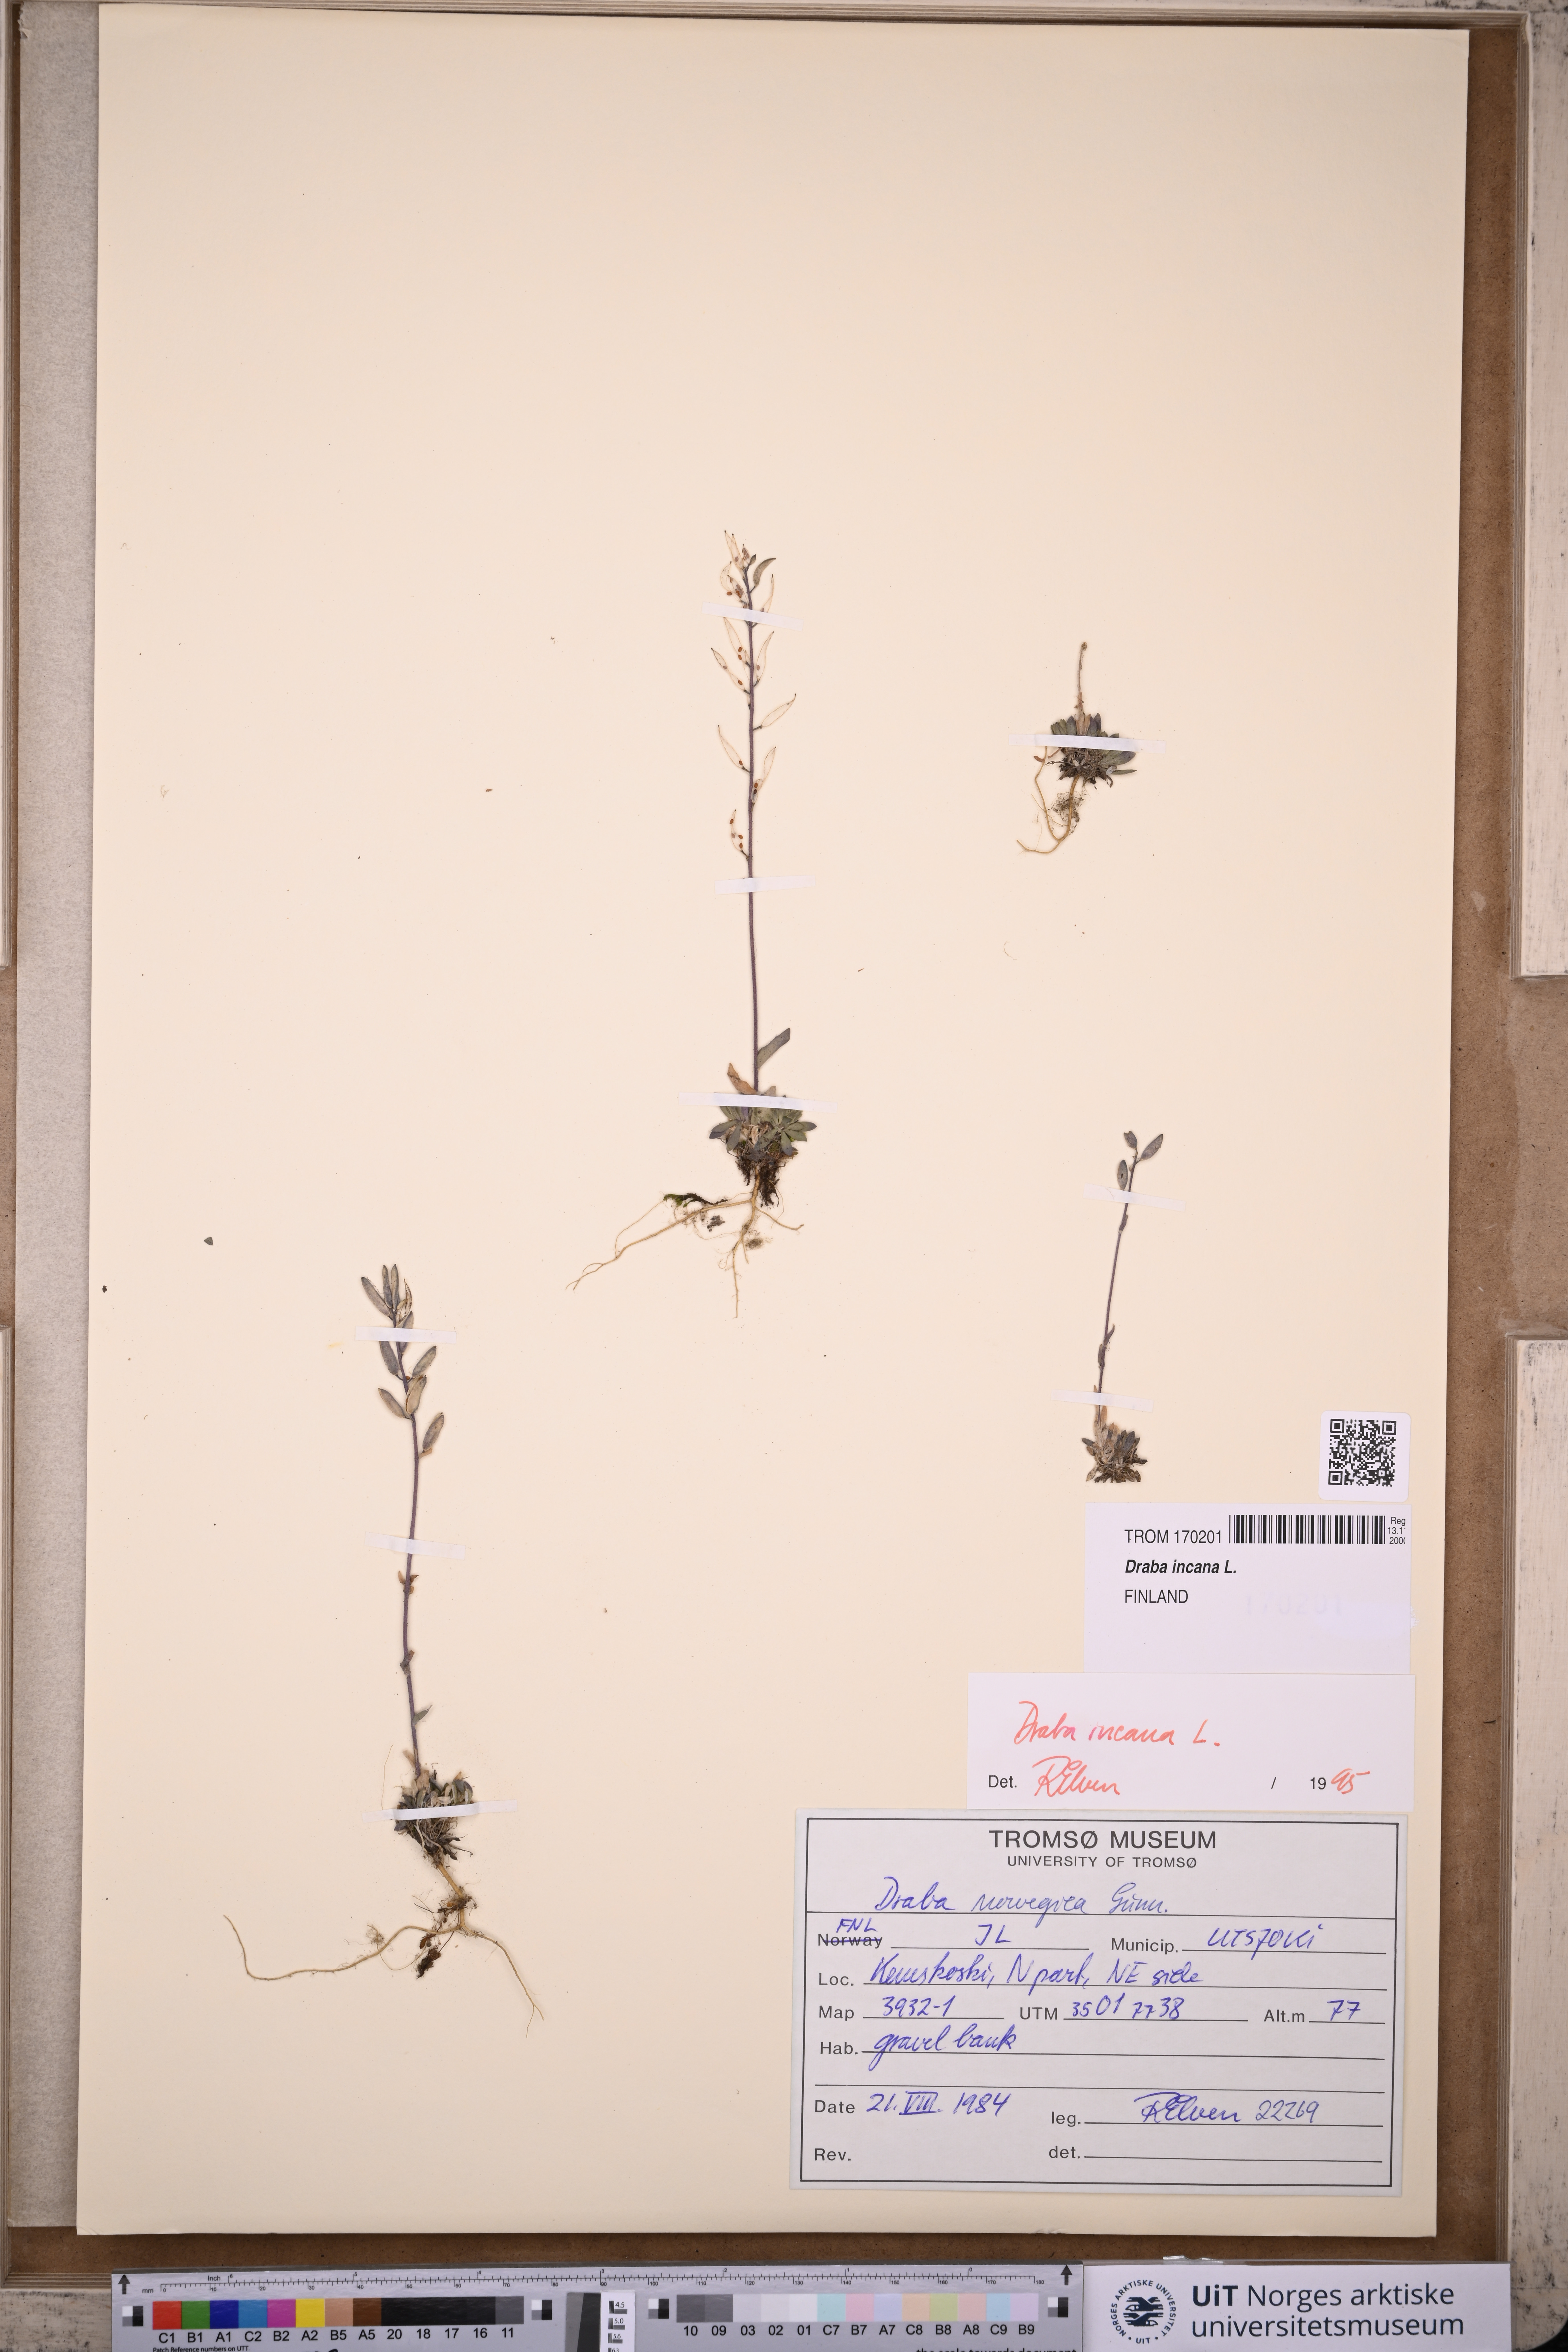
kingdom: Plantae
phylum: Tracheophyta
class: Magnoliopsida
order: Brassicales
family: Brassicaceae
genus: Draba
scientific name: Draba incana
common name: Hoary whitlow-grass
